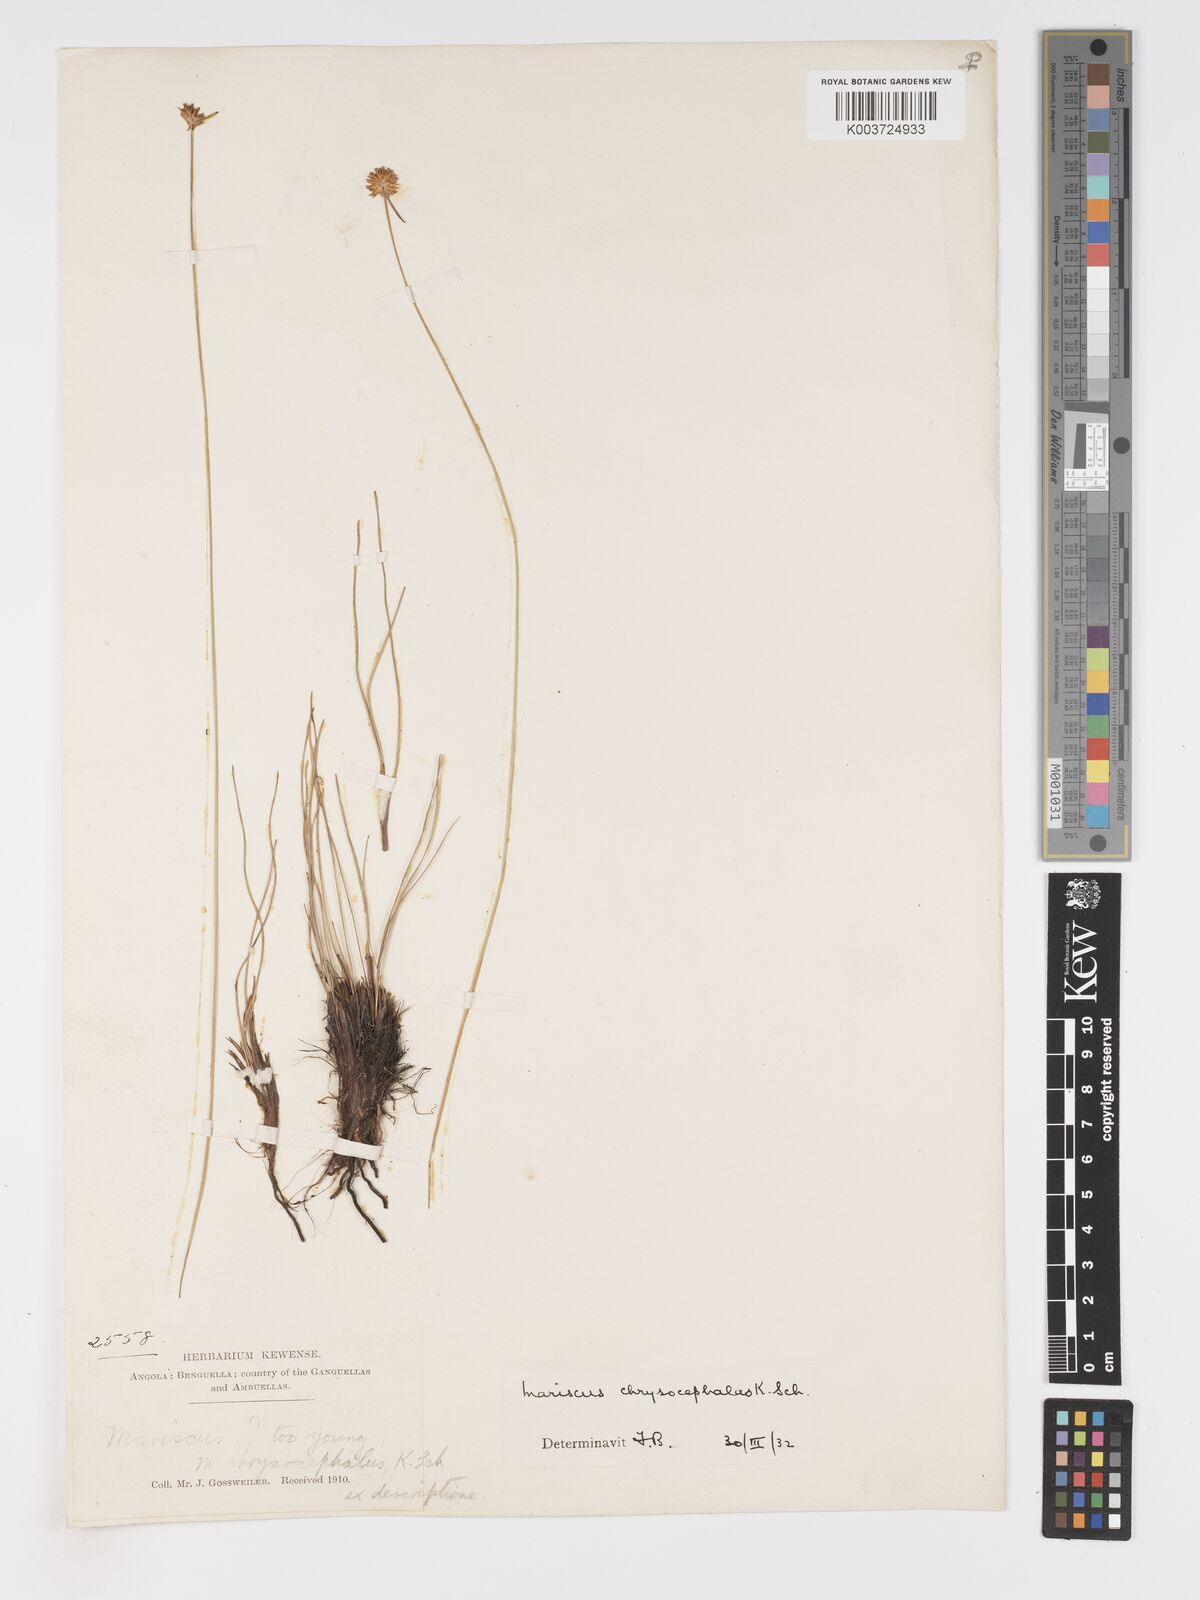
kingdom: Plantae
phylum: Tracheophyta
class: Liliopsida
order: Poales
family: Cyperaceae
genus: Cyperus
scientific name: Cyperus chrysocephalus
